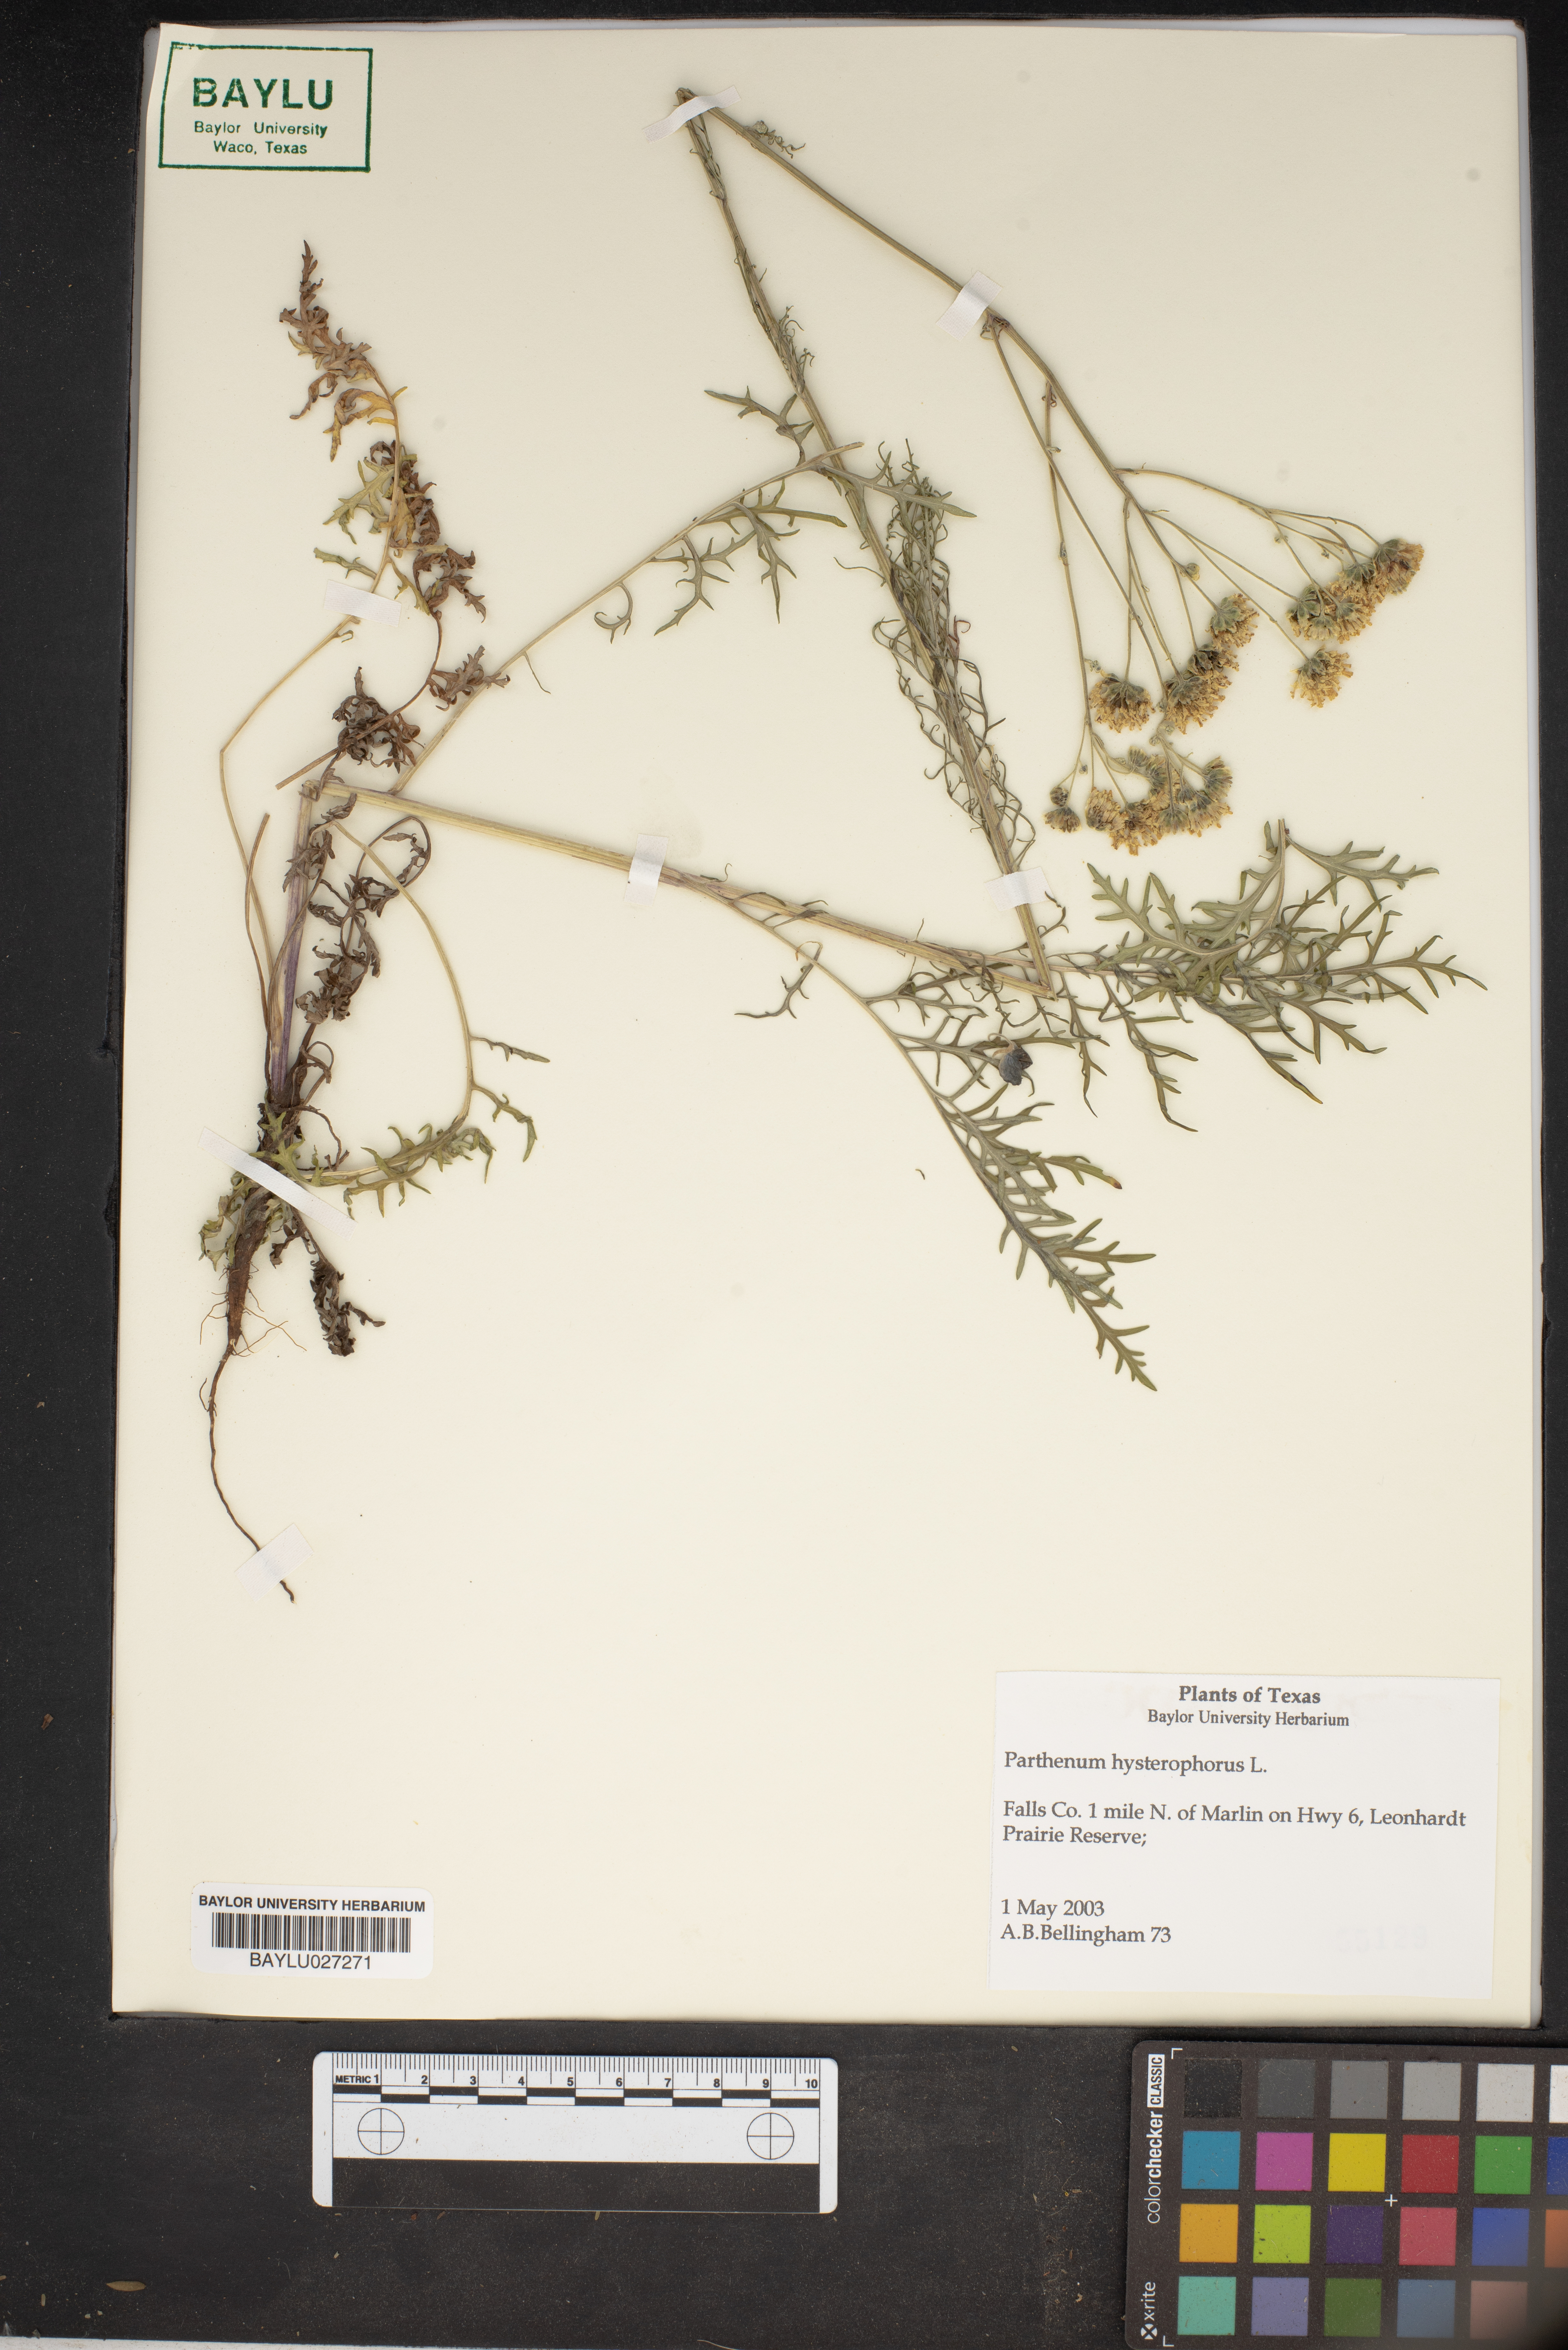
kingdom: Plantae
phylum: Tracheophyta
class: Magnoliopsida
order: Asterales
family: Asteraceae
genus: Parthenium
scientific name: Parthenium hysterophorus
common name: Santa maria feverfew
